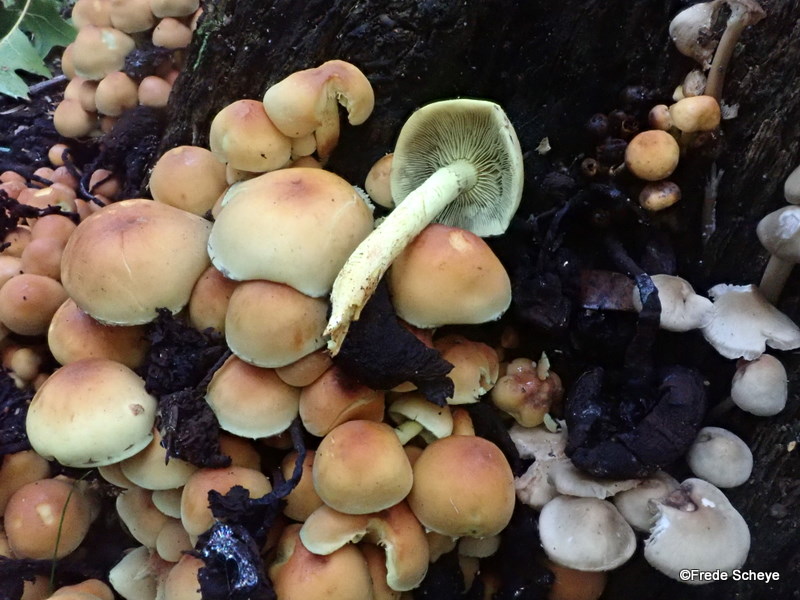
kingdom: Fungi
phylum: Basidiomycota
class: Agaricomycetes
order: Agaricales
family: Strophariaceae
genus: Hypholoma
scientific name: Hypholoma fasciculare
